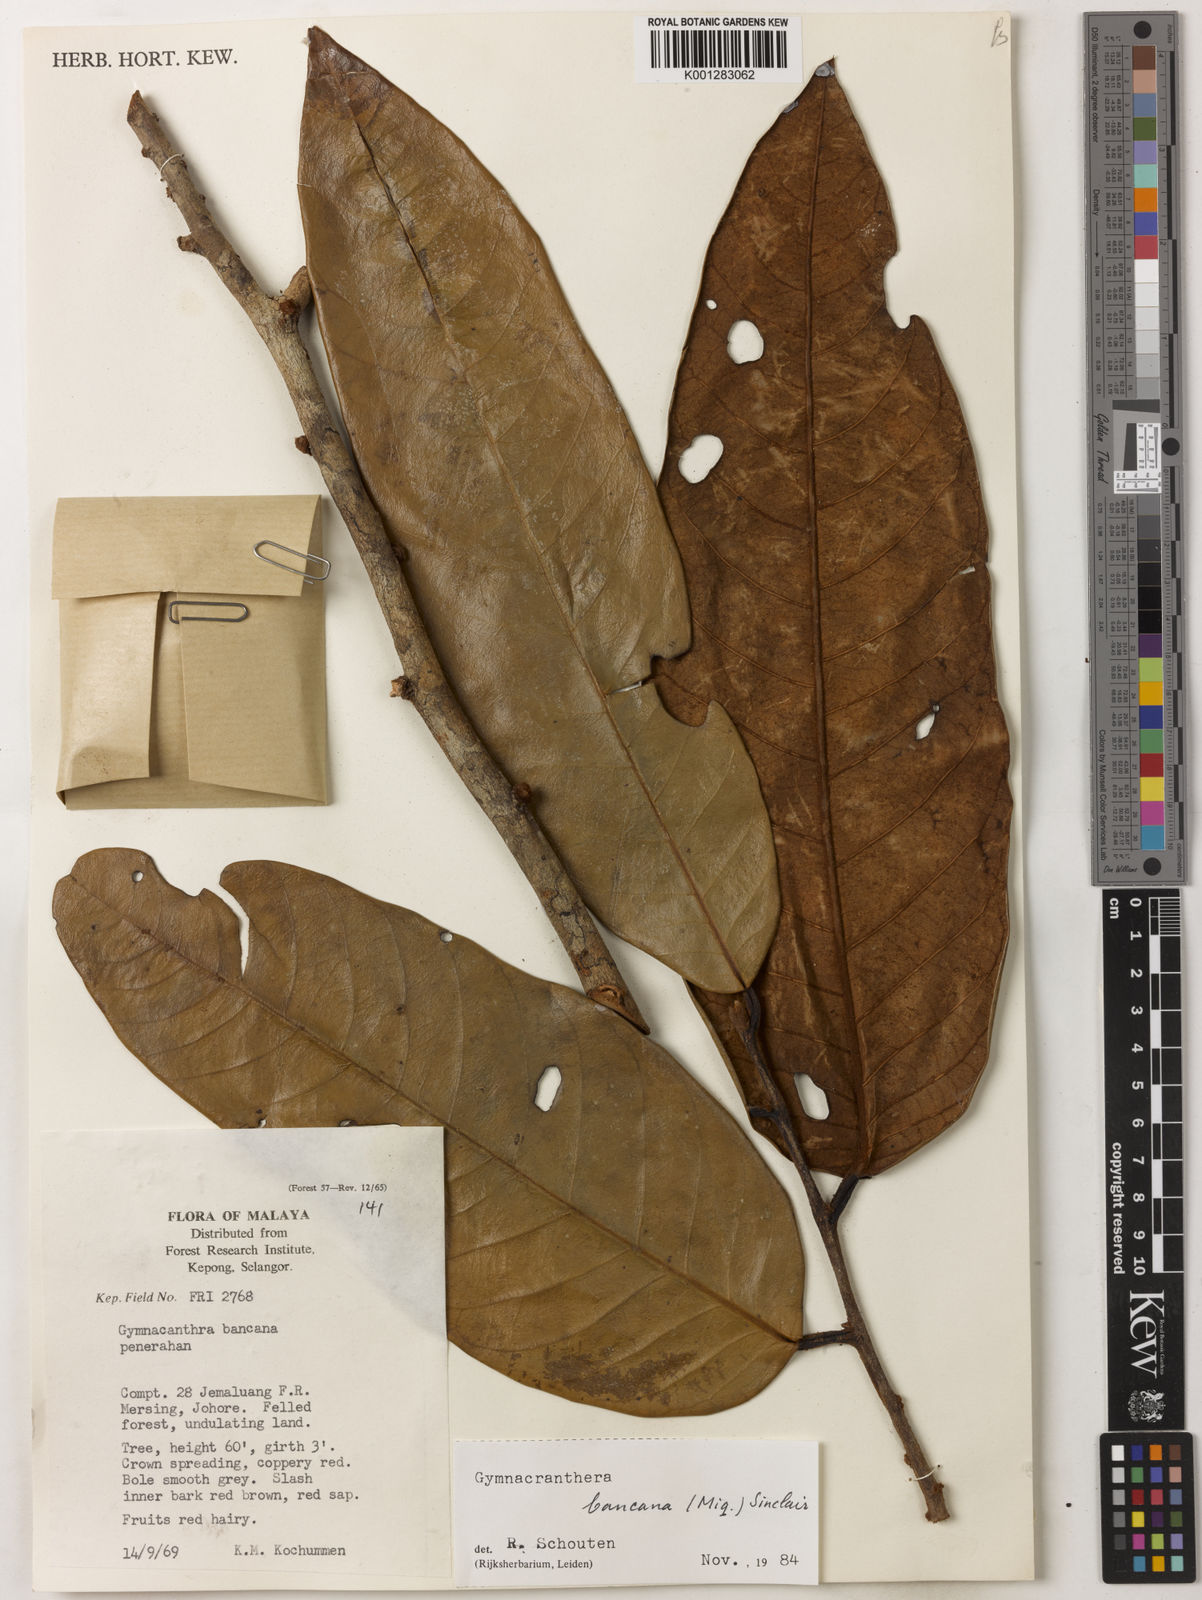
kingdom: Plantae
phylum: Tracheophyta
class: Magnoliopsida
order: Magnoliales
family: Myristicaceae
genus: Gymnacranthera
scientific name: Gymnacranthera bancana
